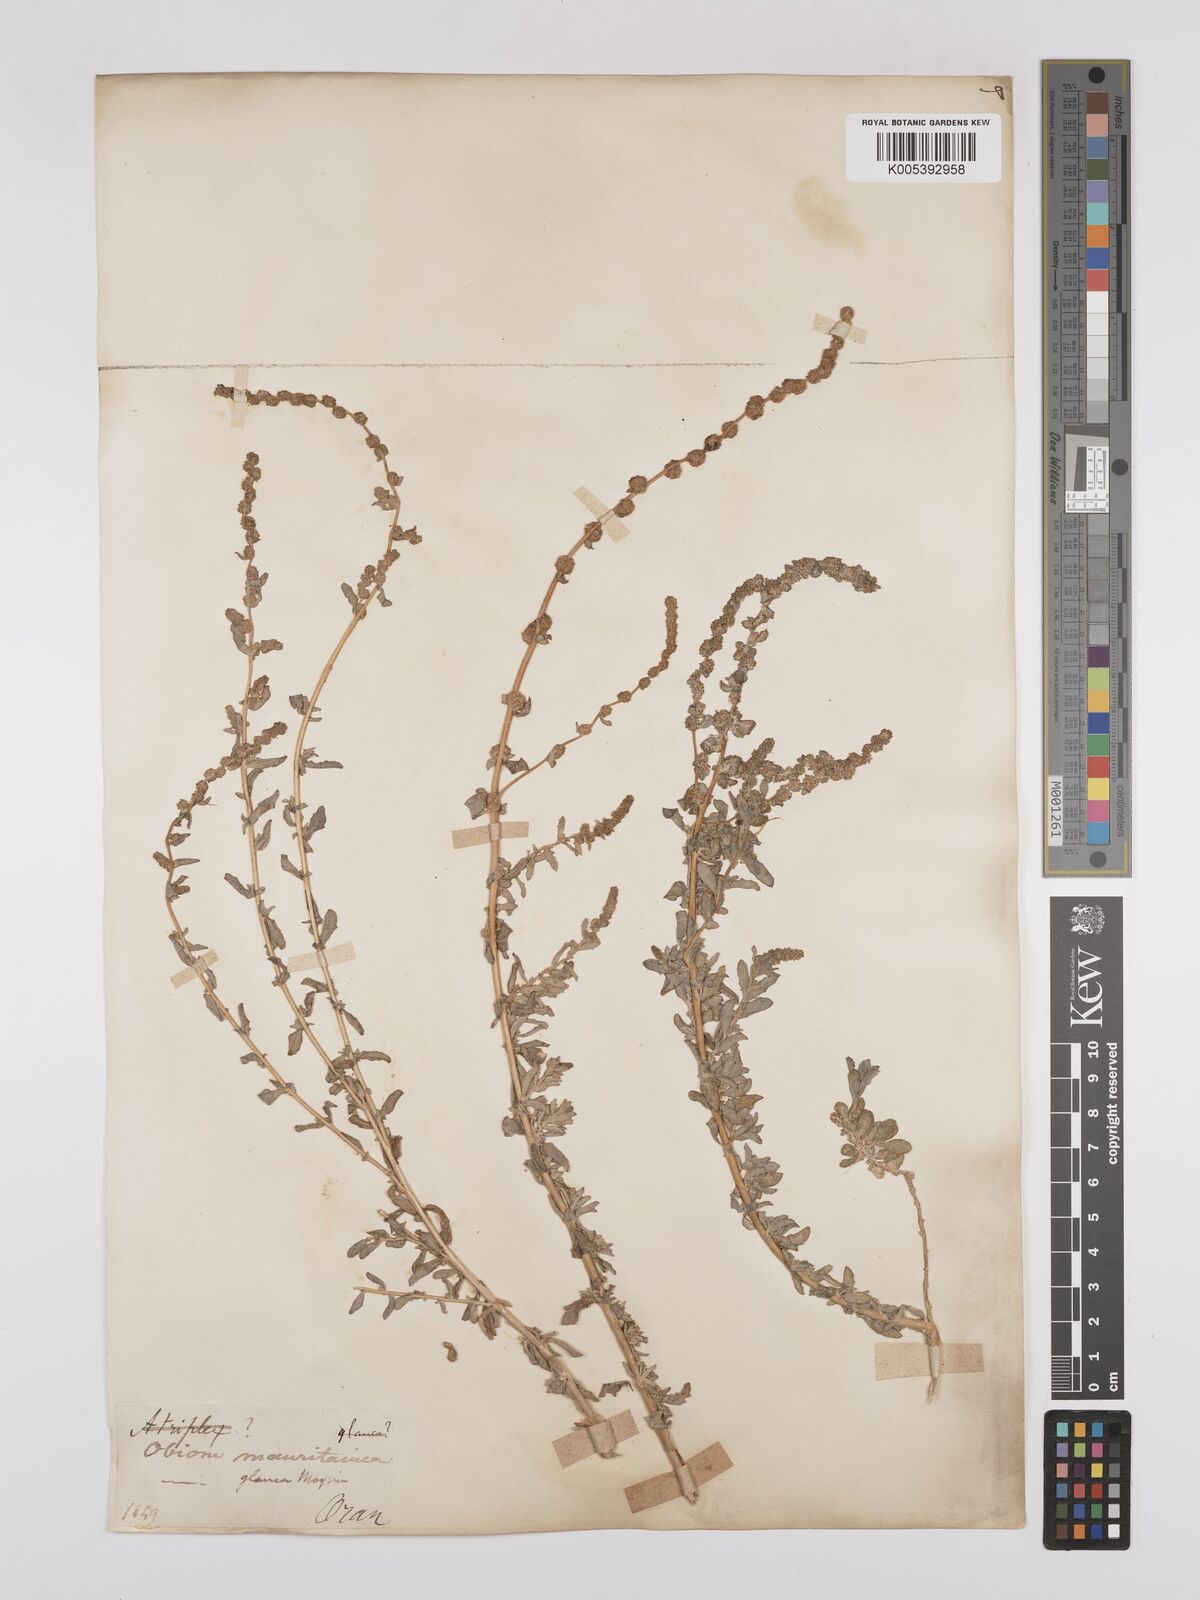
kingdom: Plantae
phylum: Tracheophyta
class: Magnoliopsida
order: Caryophyllales
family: Amaranthaceae
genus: Atriplex
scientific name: Atriplex
